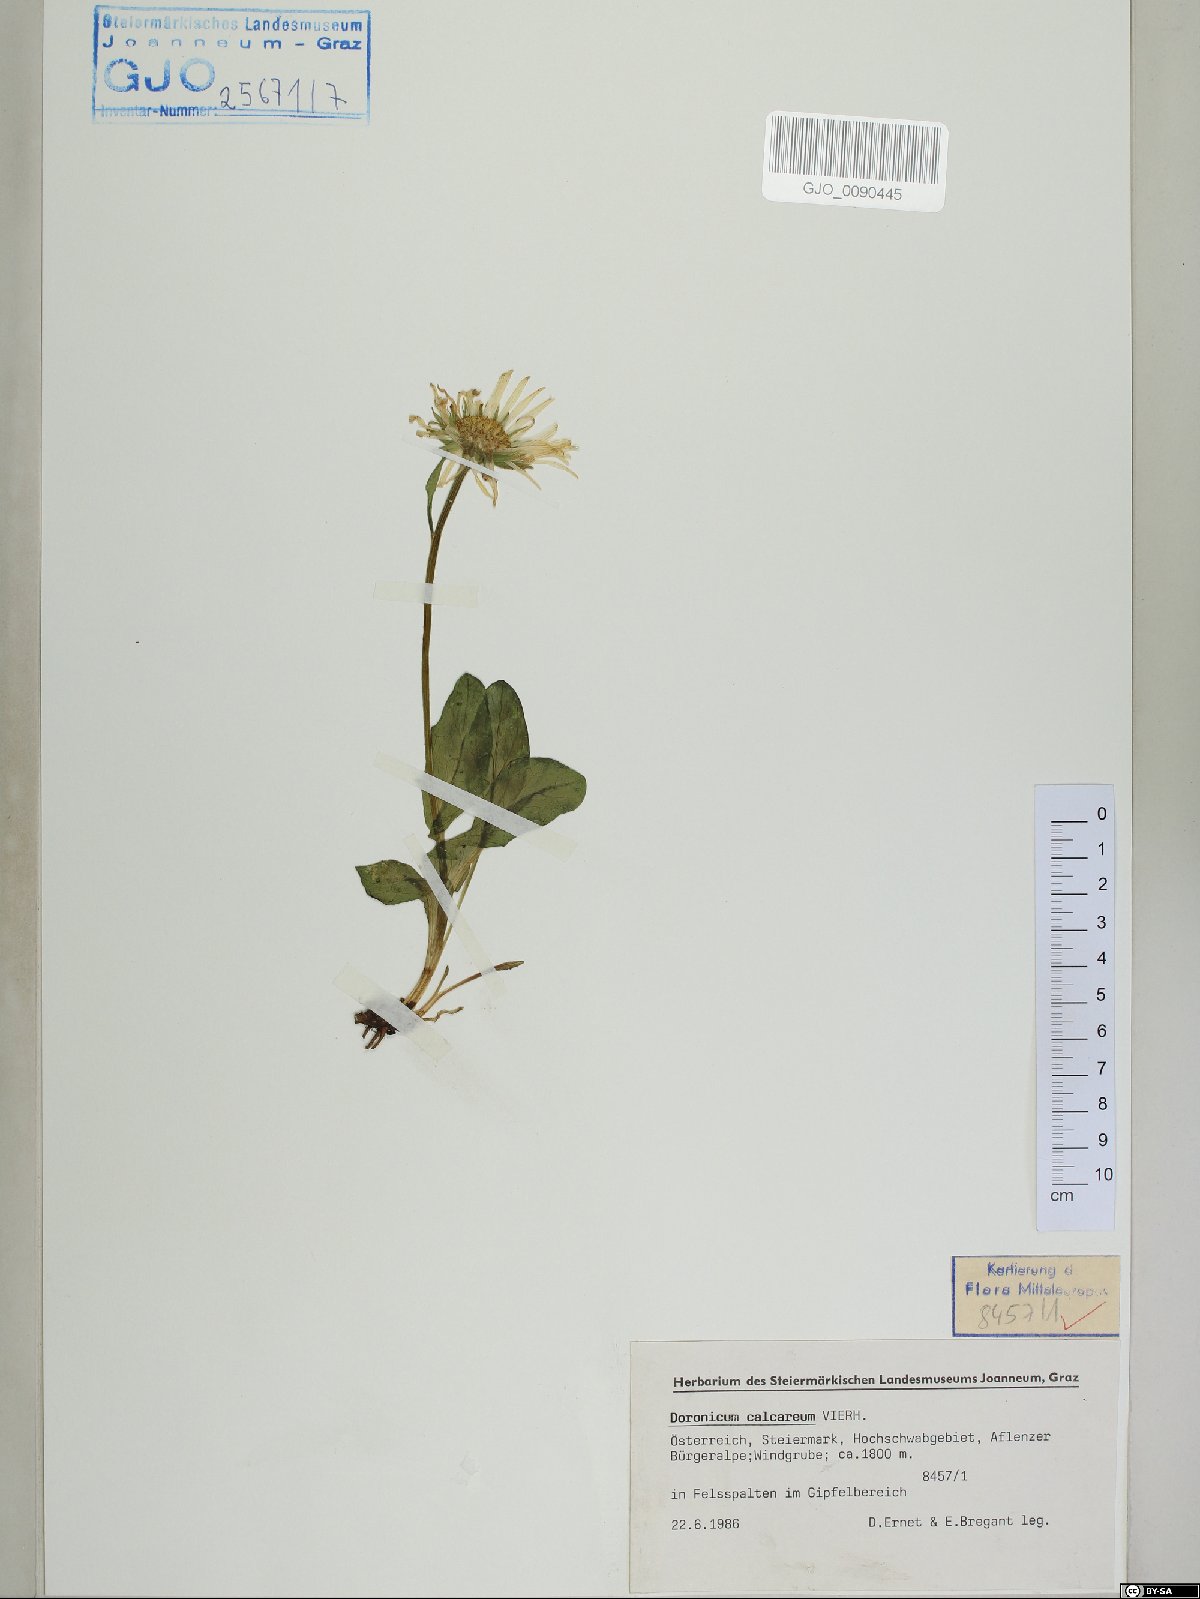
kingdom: Plantae
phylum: Tracheophyta
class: Magnoliopsida
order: Asterales
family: Asteraceae
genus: Doronicum
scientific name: Doronicum glaciale
